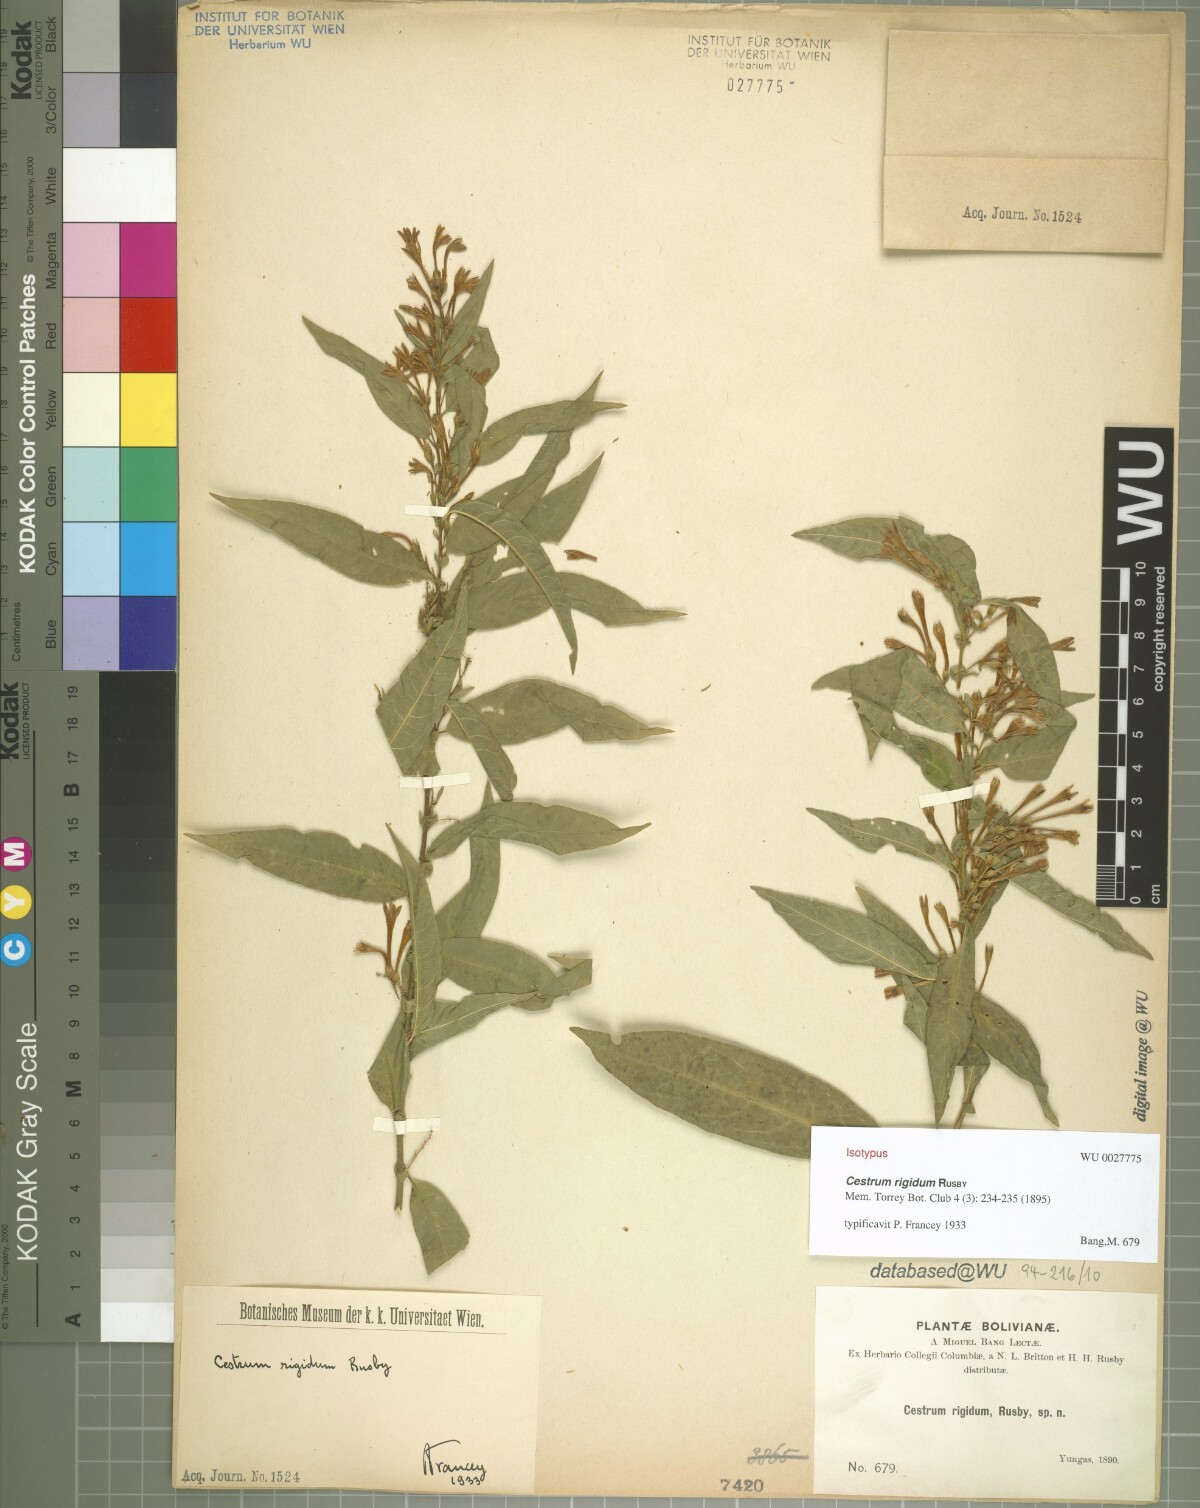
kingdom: Plantae
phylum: Tracheophyta
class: Magnoliopsida
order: Solanales
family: Solanaceae
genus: Cestrum
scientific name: Cestrum rigidum
